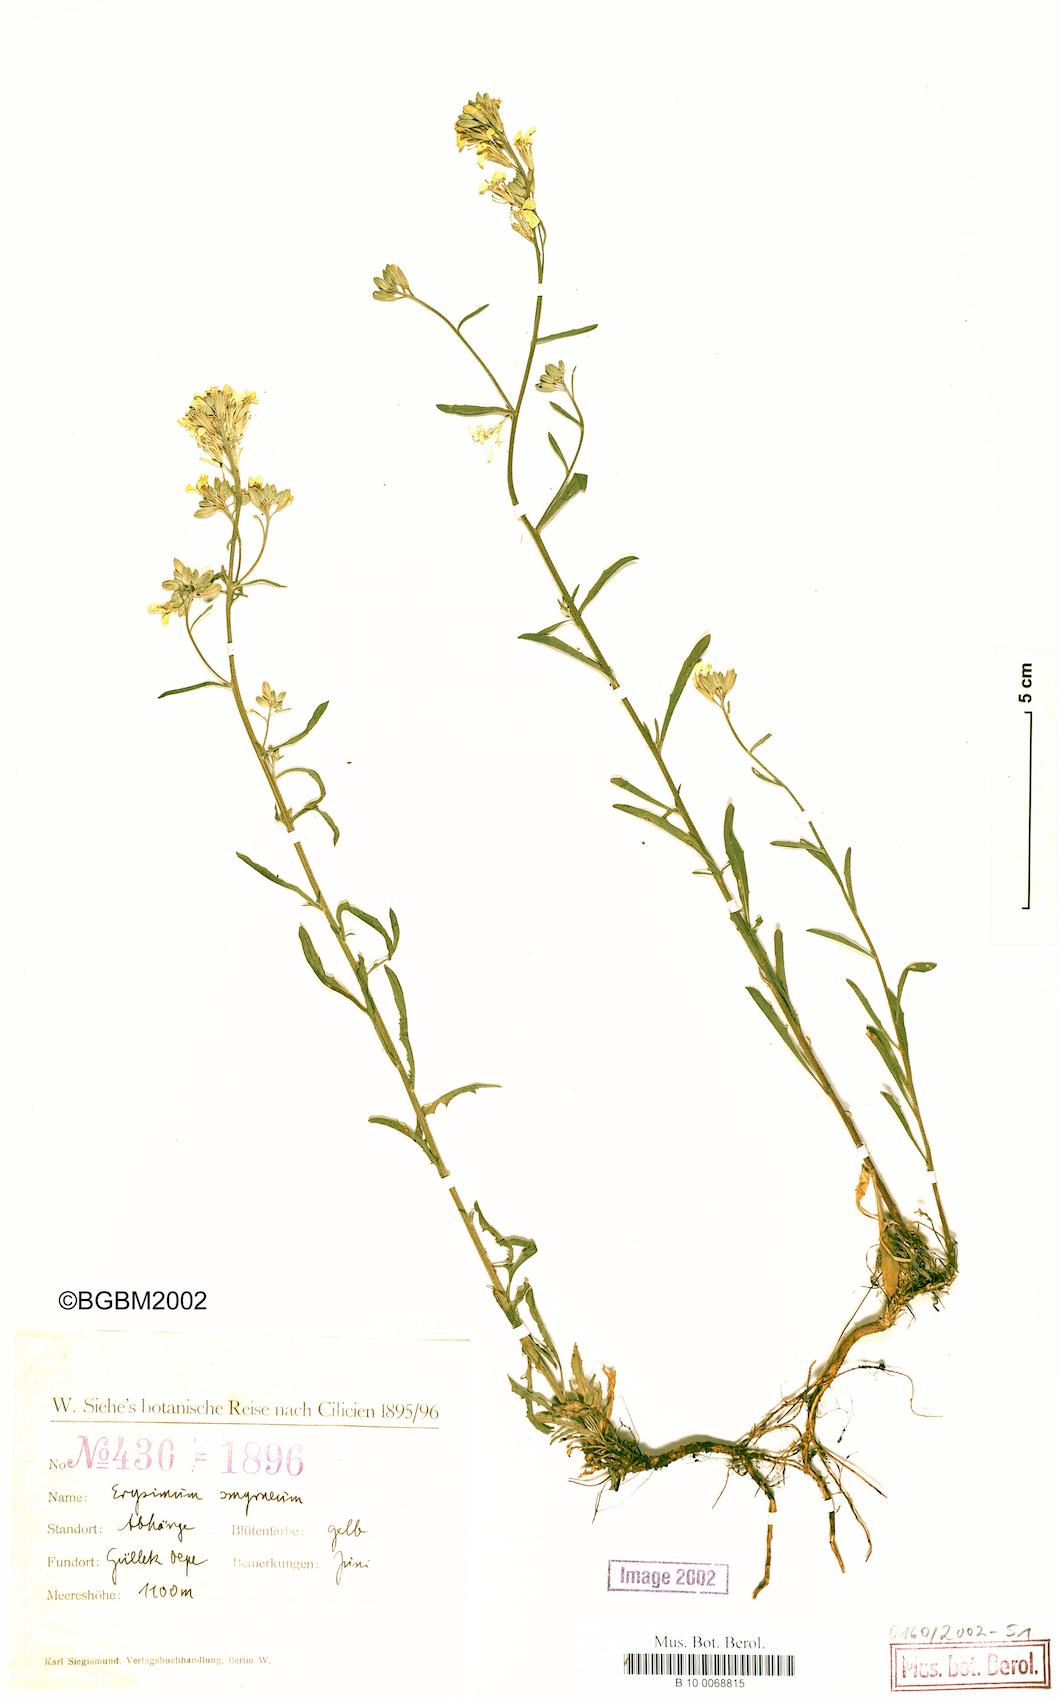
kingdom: Plantae
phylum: Tracheophyta
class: Magnoliopsida
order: Brassicales
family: Brassicaceae
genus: Erysimum
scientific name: Erysimum smyrnaeum
